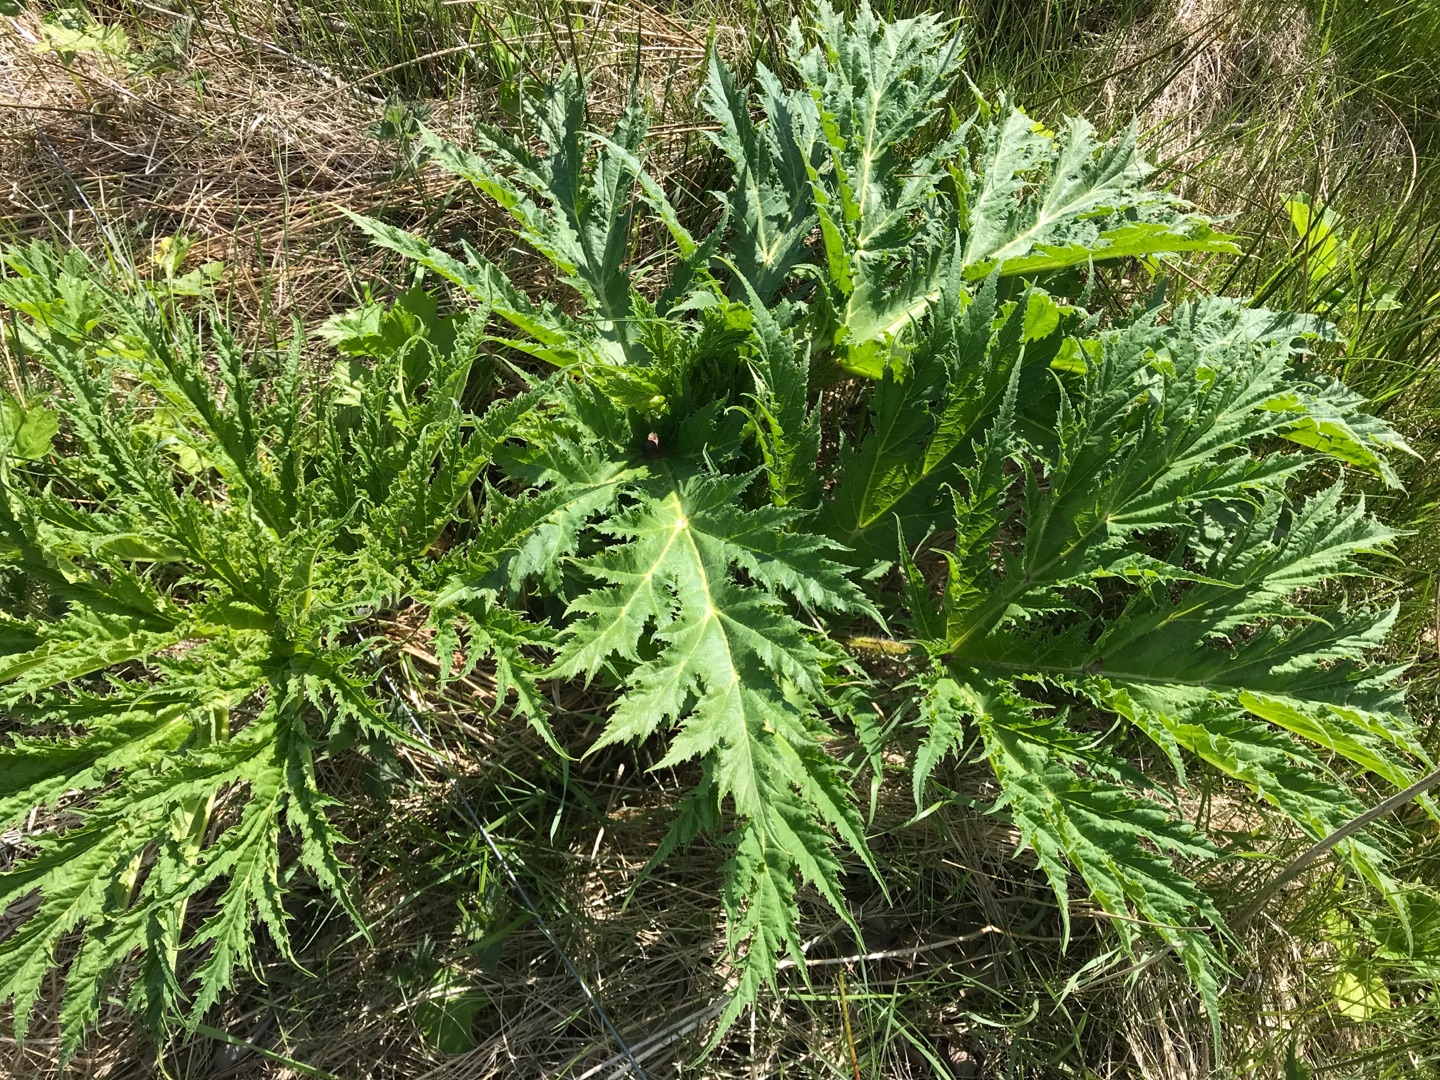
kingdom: Plantae
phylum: Tracheophyta
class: Magnoliopsida
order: Apiales
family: Apiaceae
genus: Heracleum
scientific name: Heracleum mantegazzianum
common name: Kæmpe-bjørneklo
